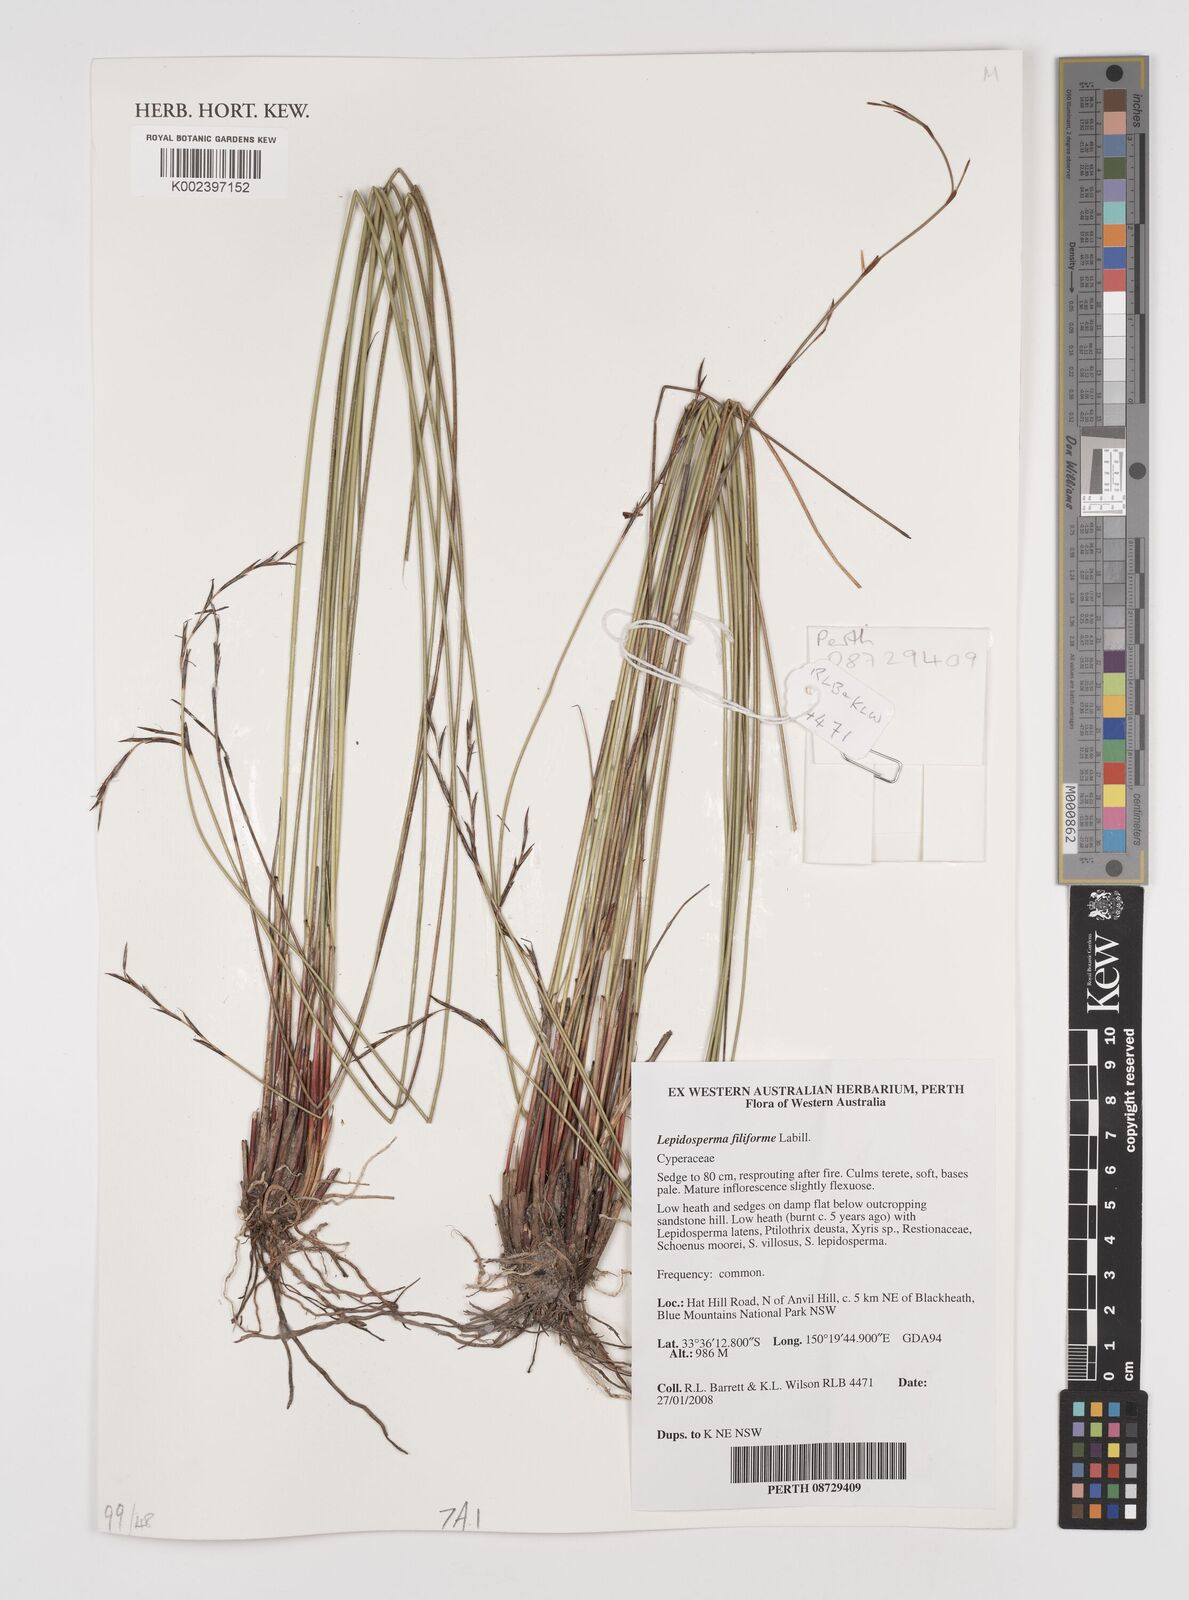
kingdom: Plantae
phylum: Tracheophyta
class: Liliopsida
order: Poales
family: Cyperaceae
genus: Lepidosperma
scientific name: Lepidosperma filiforme
